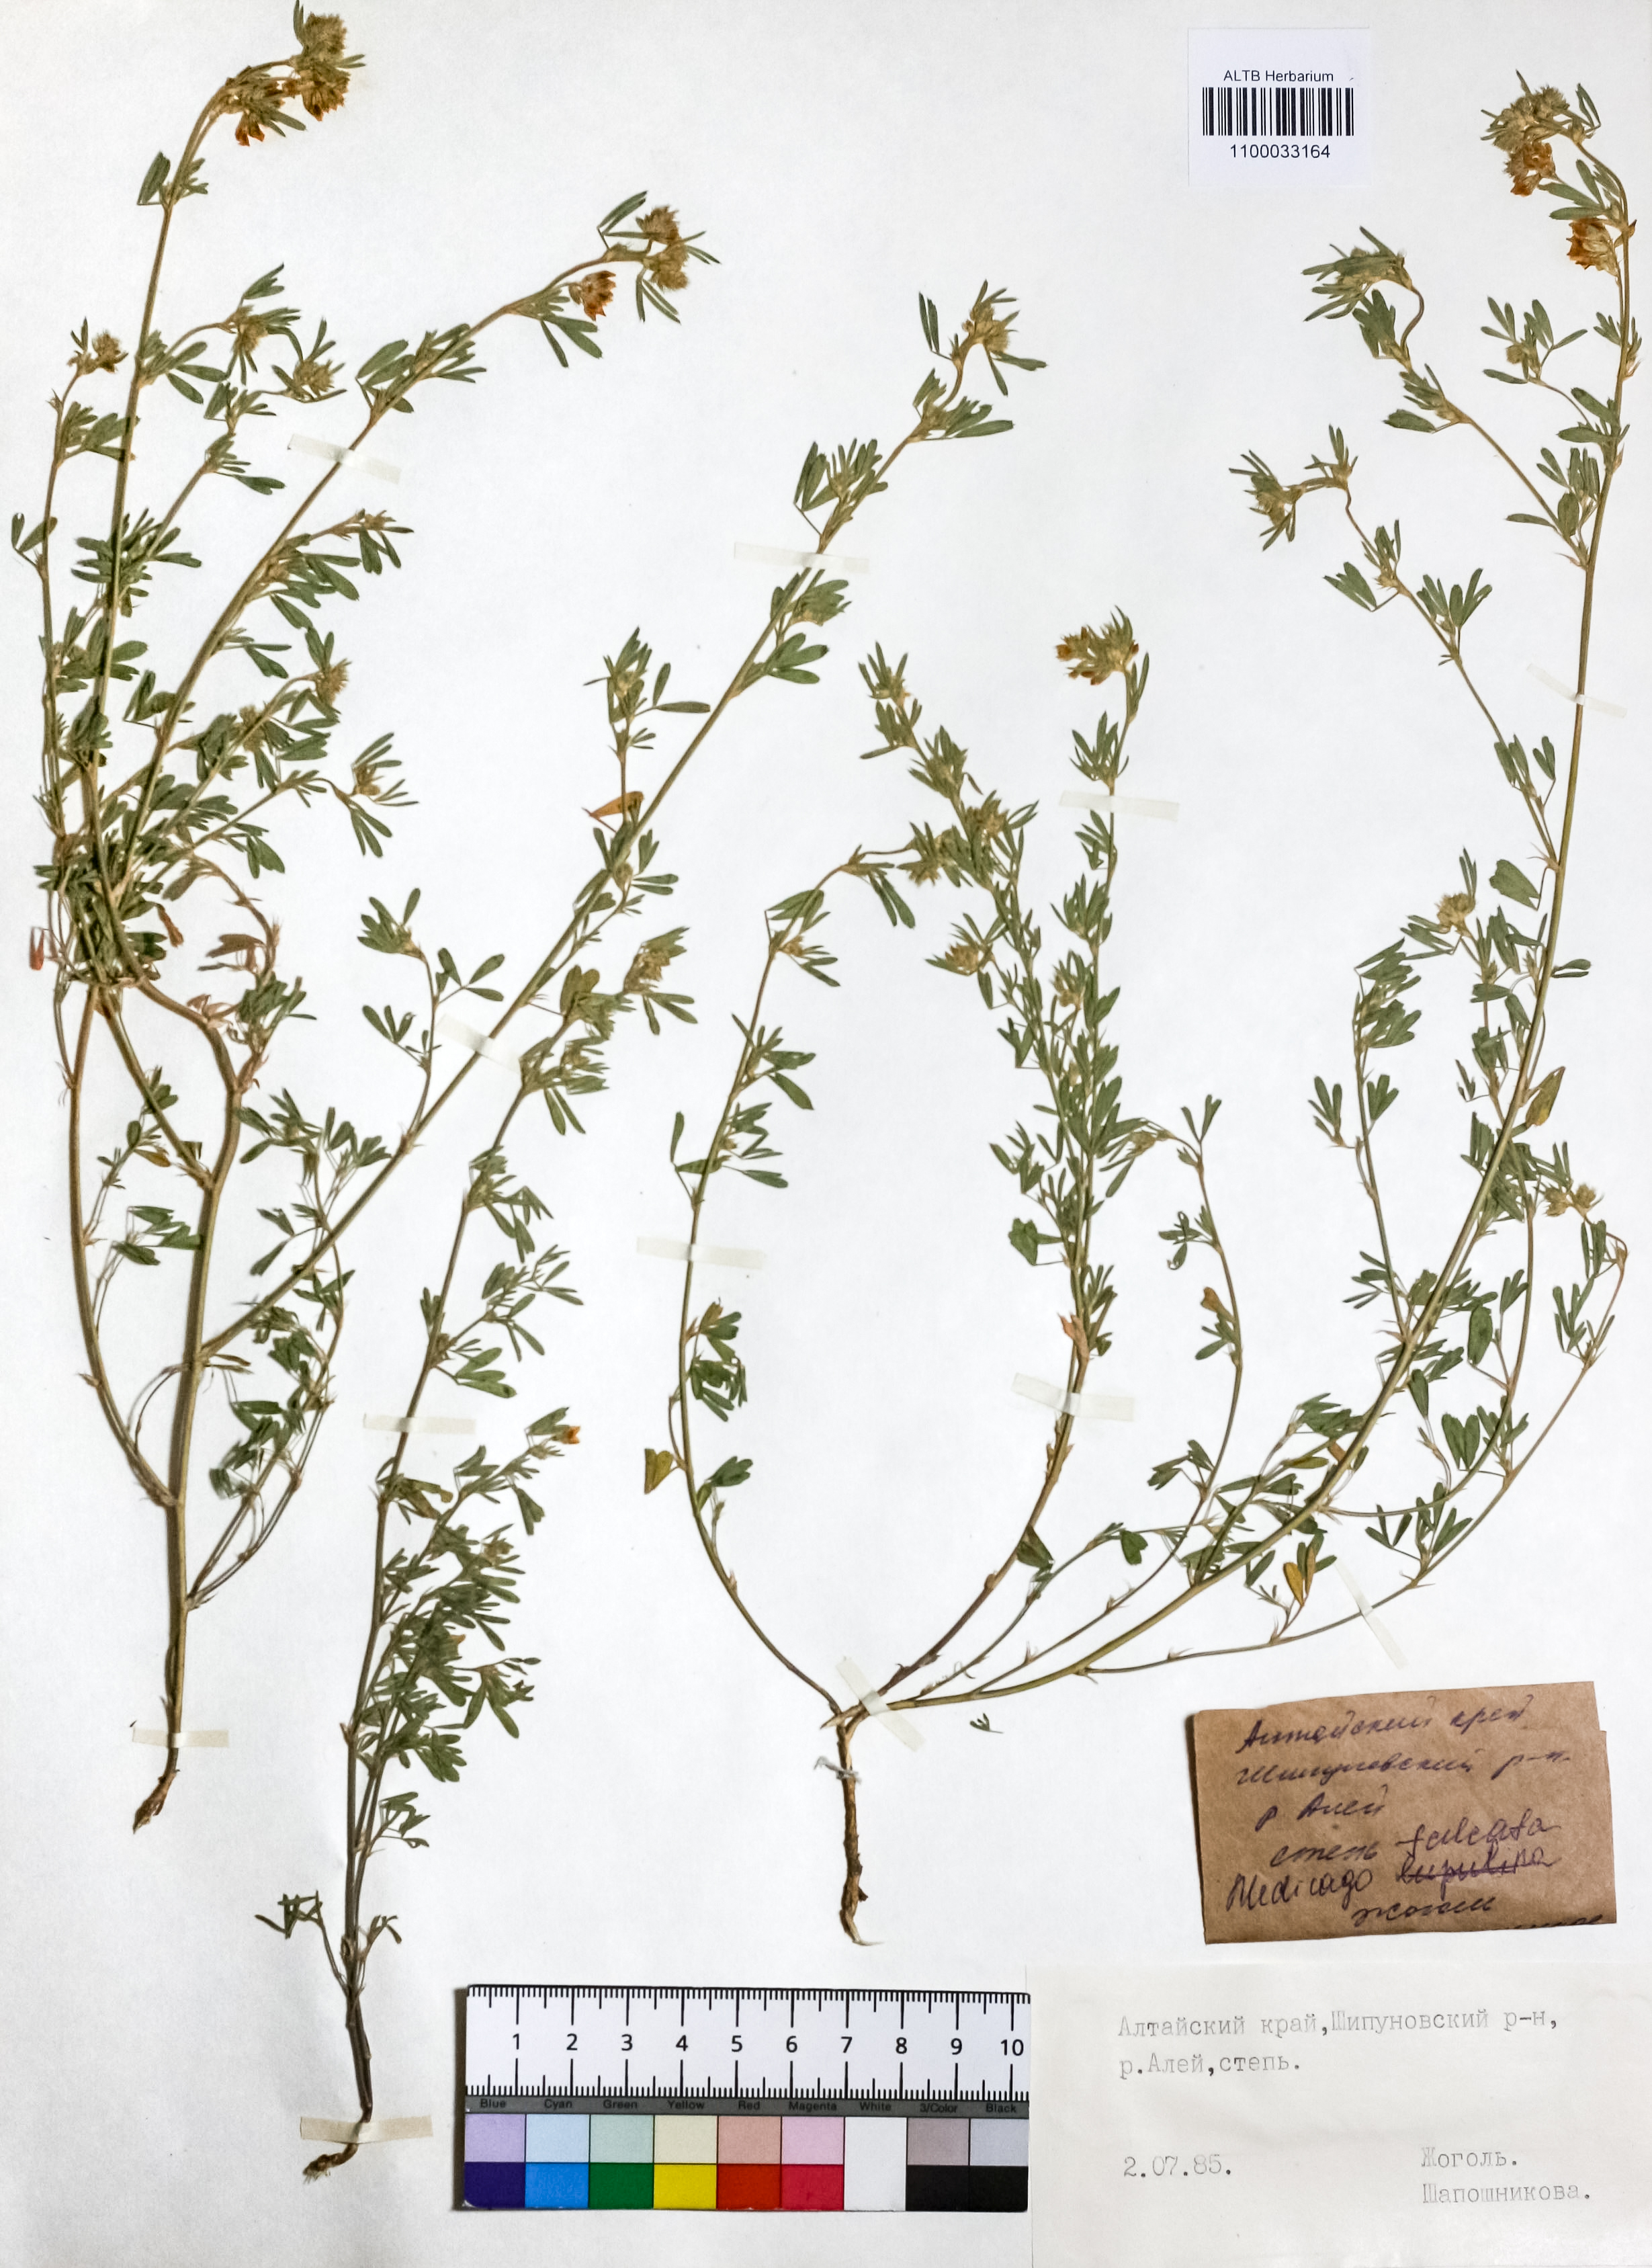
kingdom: Plantae
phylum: Tracheophyta
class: Magnoliopsida
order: Fabales
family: Fabaceae
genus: Medicago
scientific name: Medicago falcata
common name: Sickle medick
